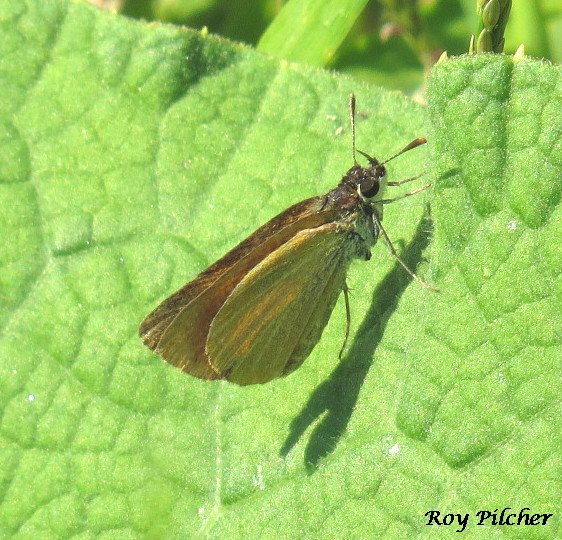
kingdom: Animalia
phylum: Arthropoda
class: Insecta
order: Lepidoptera
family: Hesperiidae
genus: Ancyloxypha
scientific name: Ancyloxypha numitor
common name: Least Skipper
